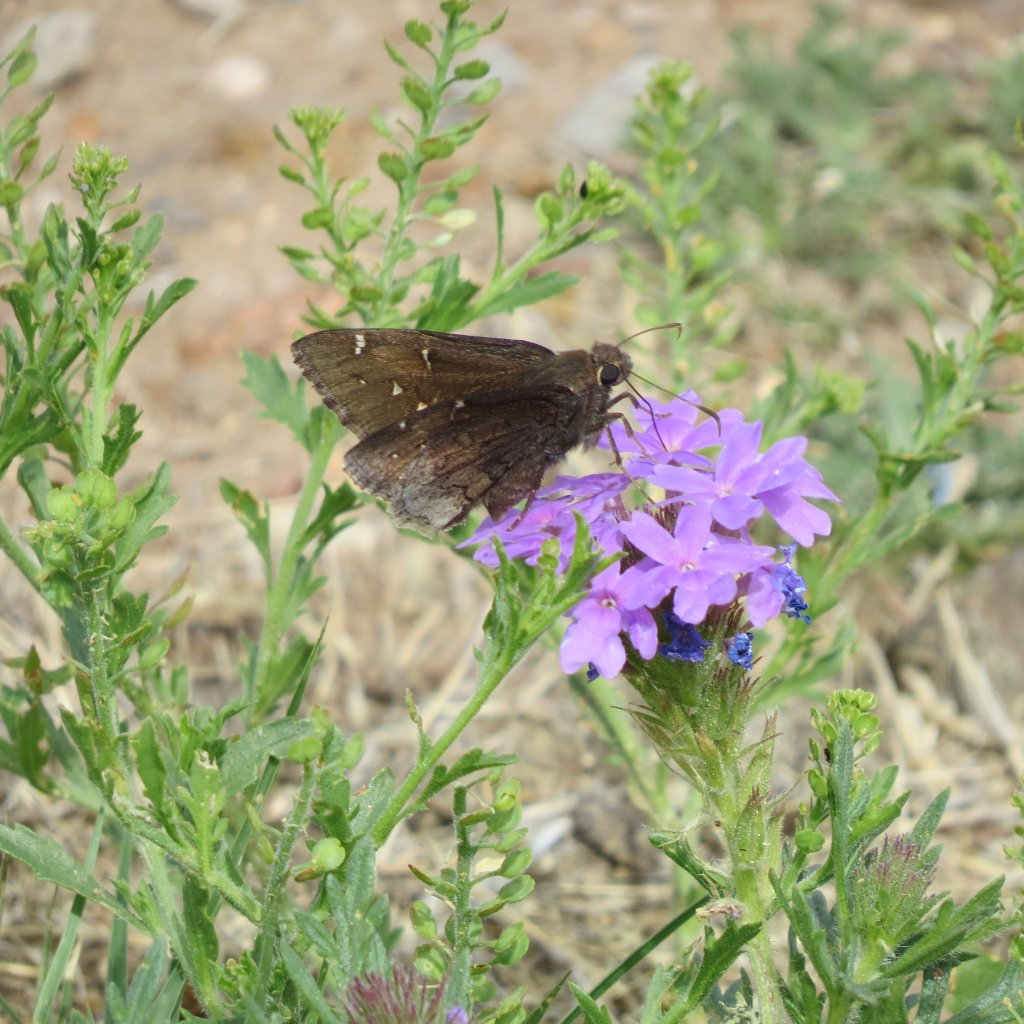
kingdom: Animalia
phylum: Arthropoda
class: Insecta
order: Lepidoptera
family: Hesperiidae
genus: Achalarus
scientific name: Achalarus casica
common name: Desert Cloudywing
